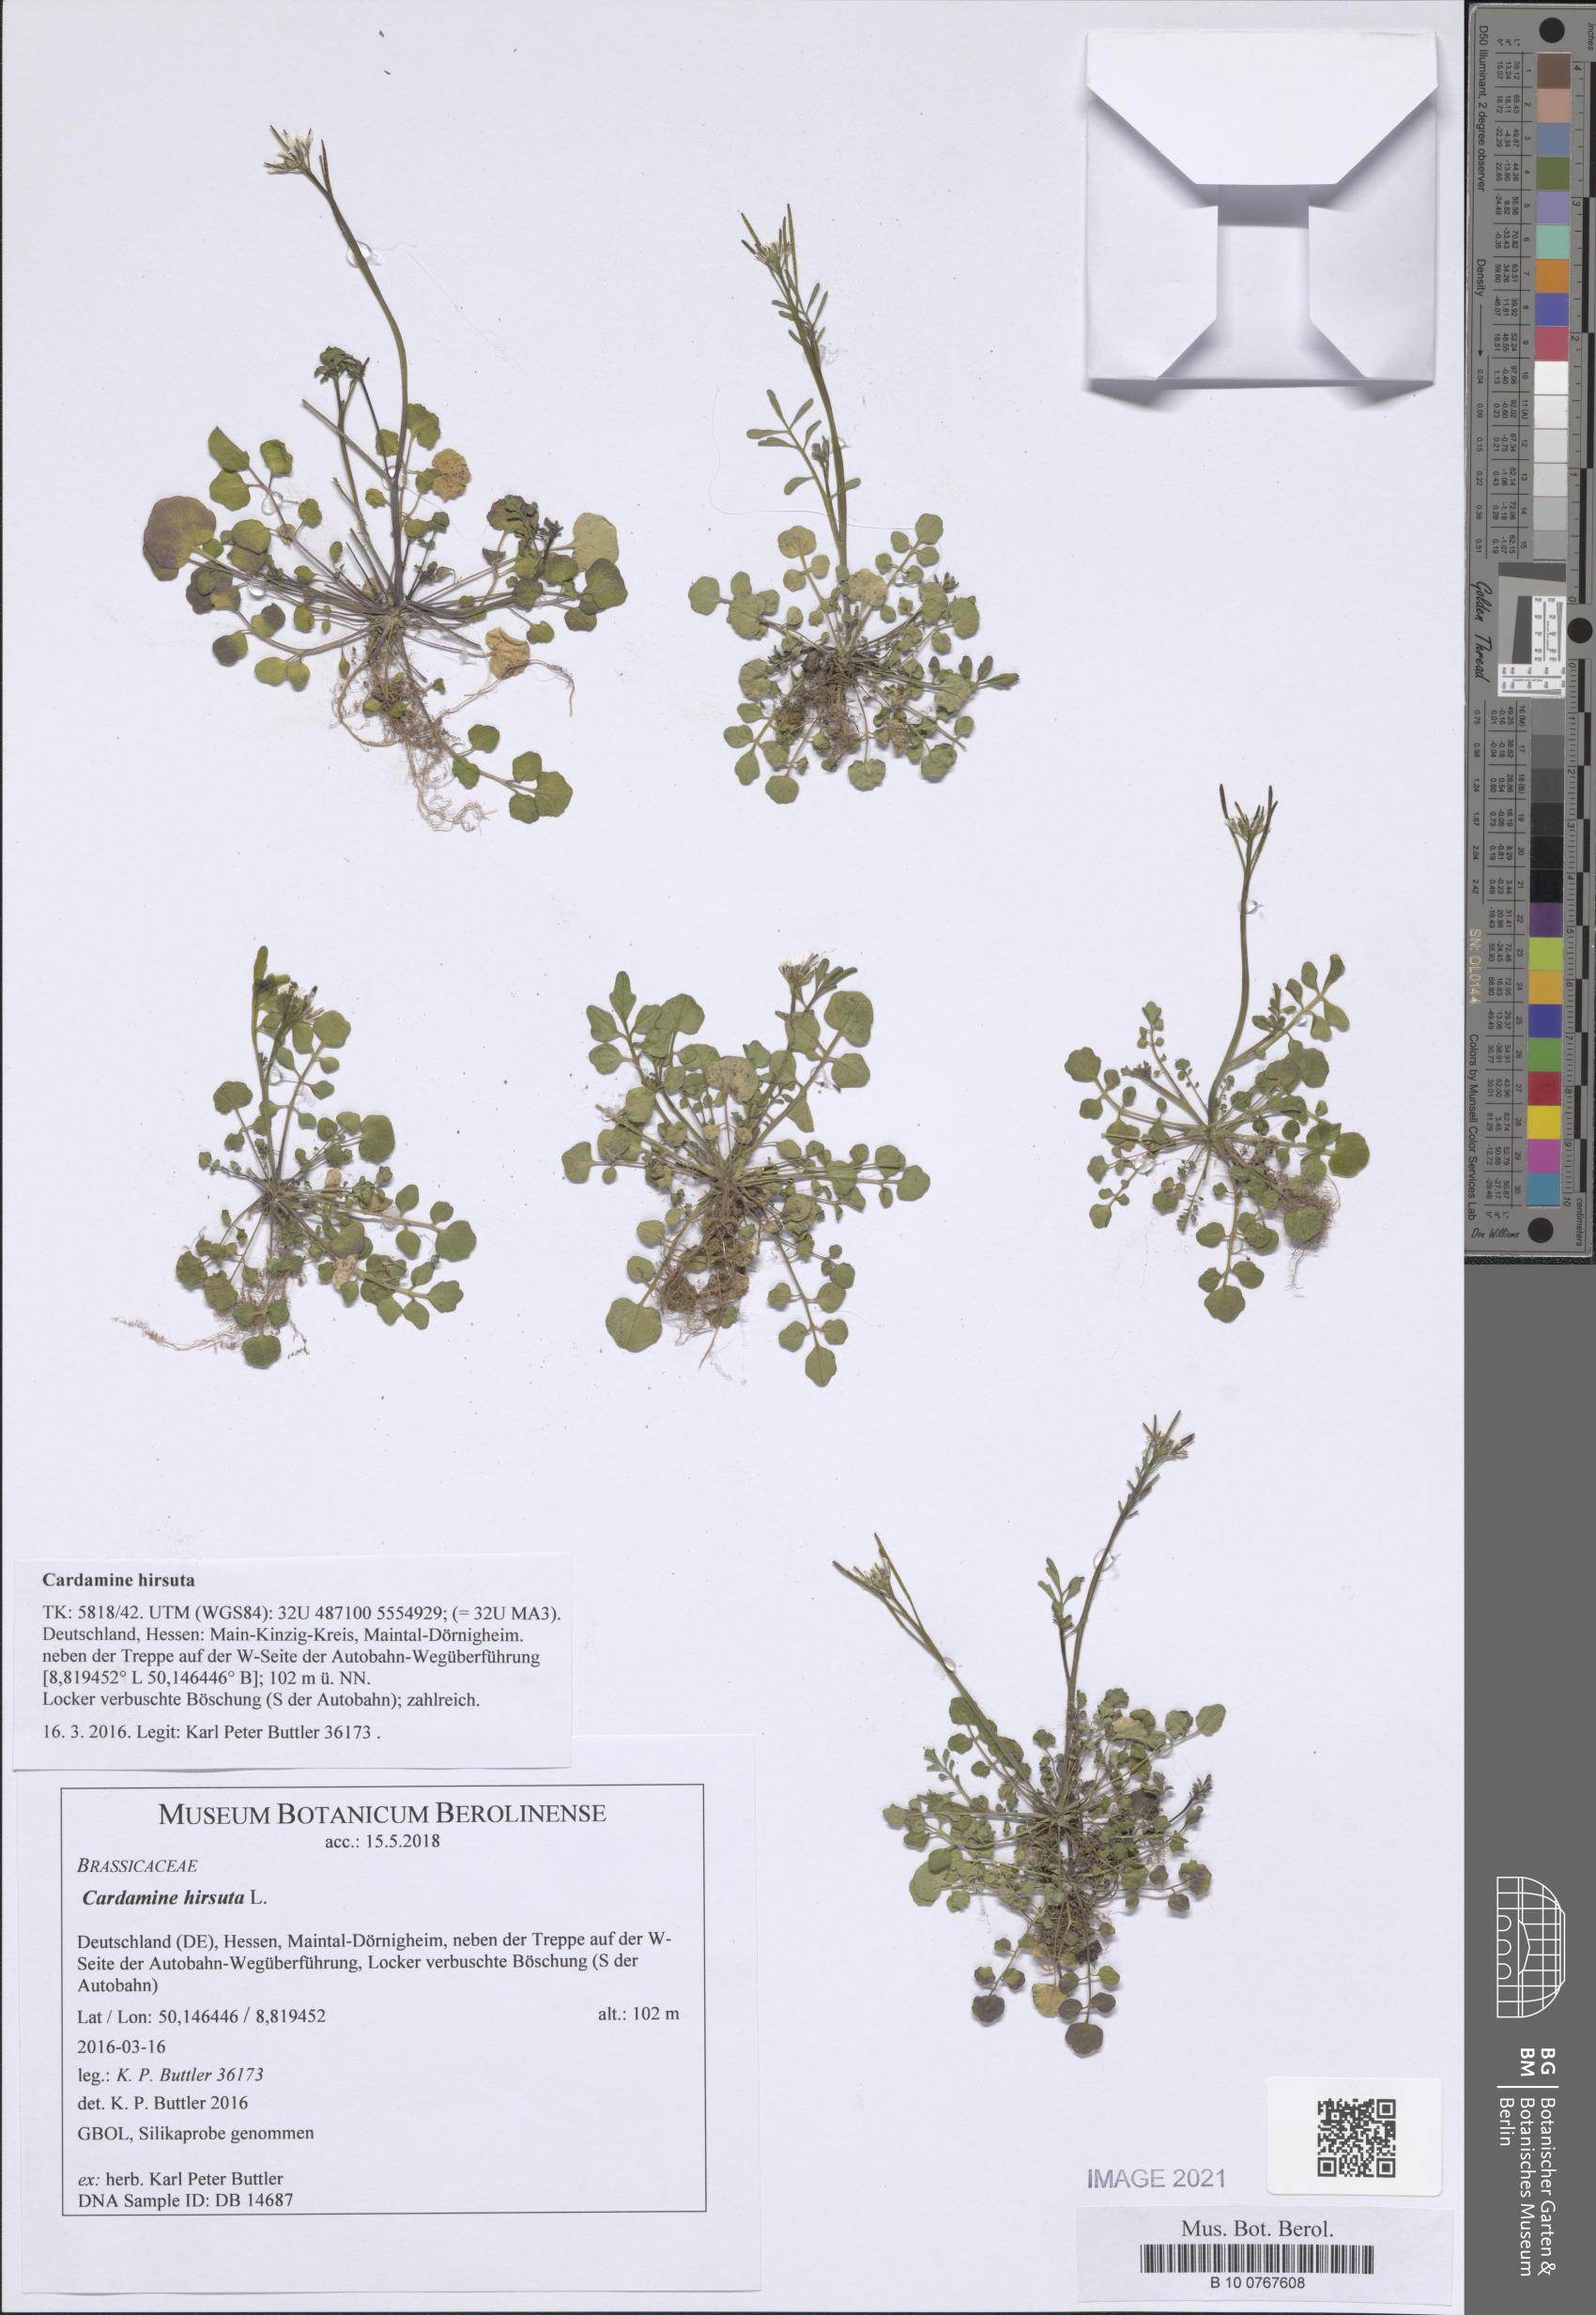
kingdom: Plantae
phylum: Tracheophyta
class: Magnoliopsida
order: Brassicales
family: Brassicaceae
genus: Cardamine
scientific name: Cardamine hirsuta
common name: Hairy bittercress
